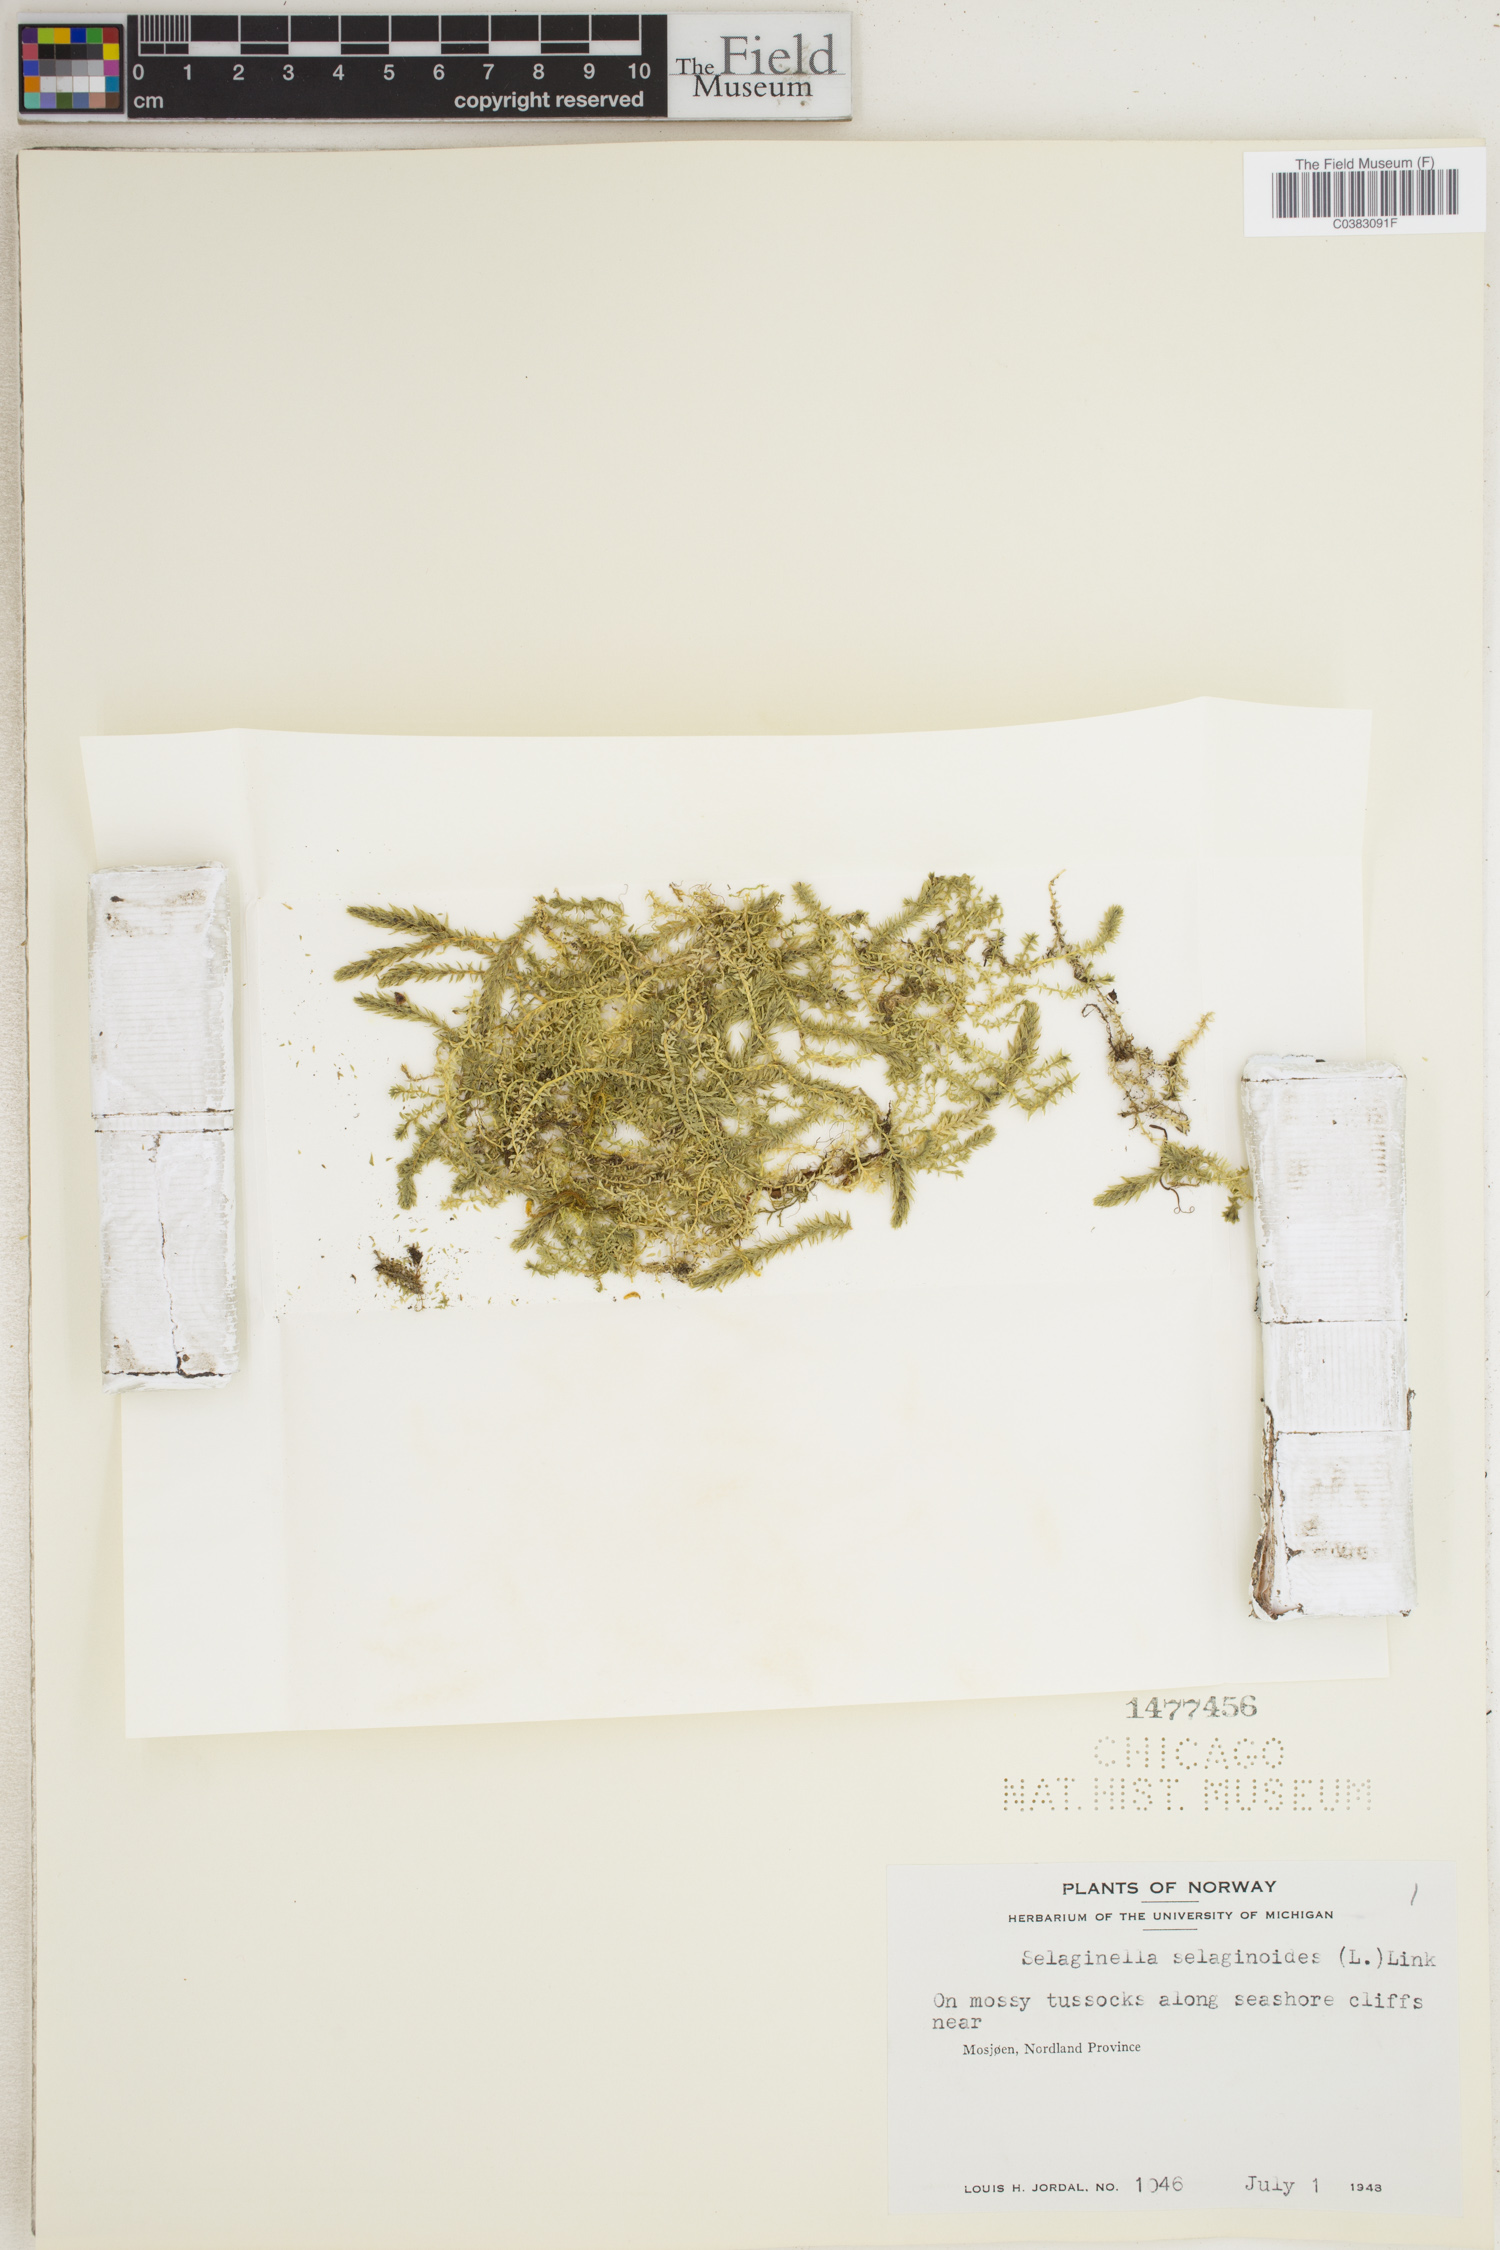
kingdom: Plantae
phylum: Tracheophyta
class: Lycopodiopsida
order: Selaginellales
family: Selaginellaceae
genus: Selaginella
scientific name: Selaginella selaginoides
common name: Prickly mountain-moss
